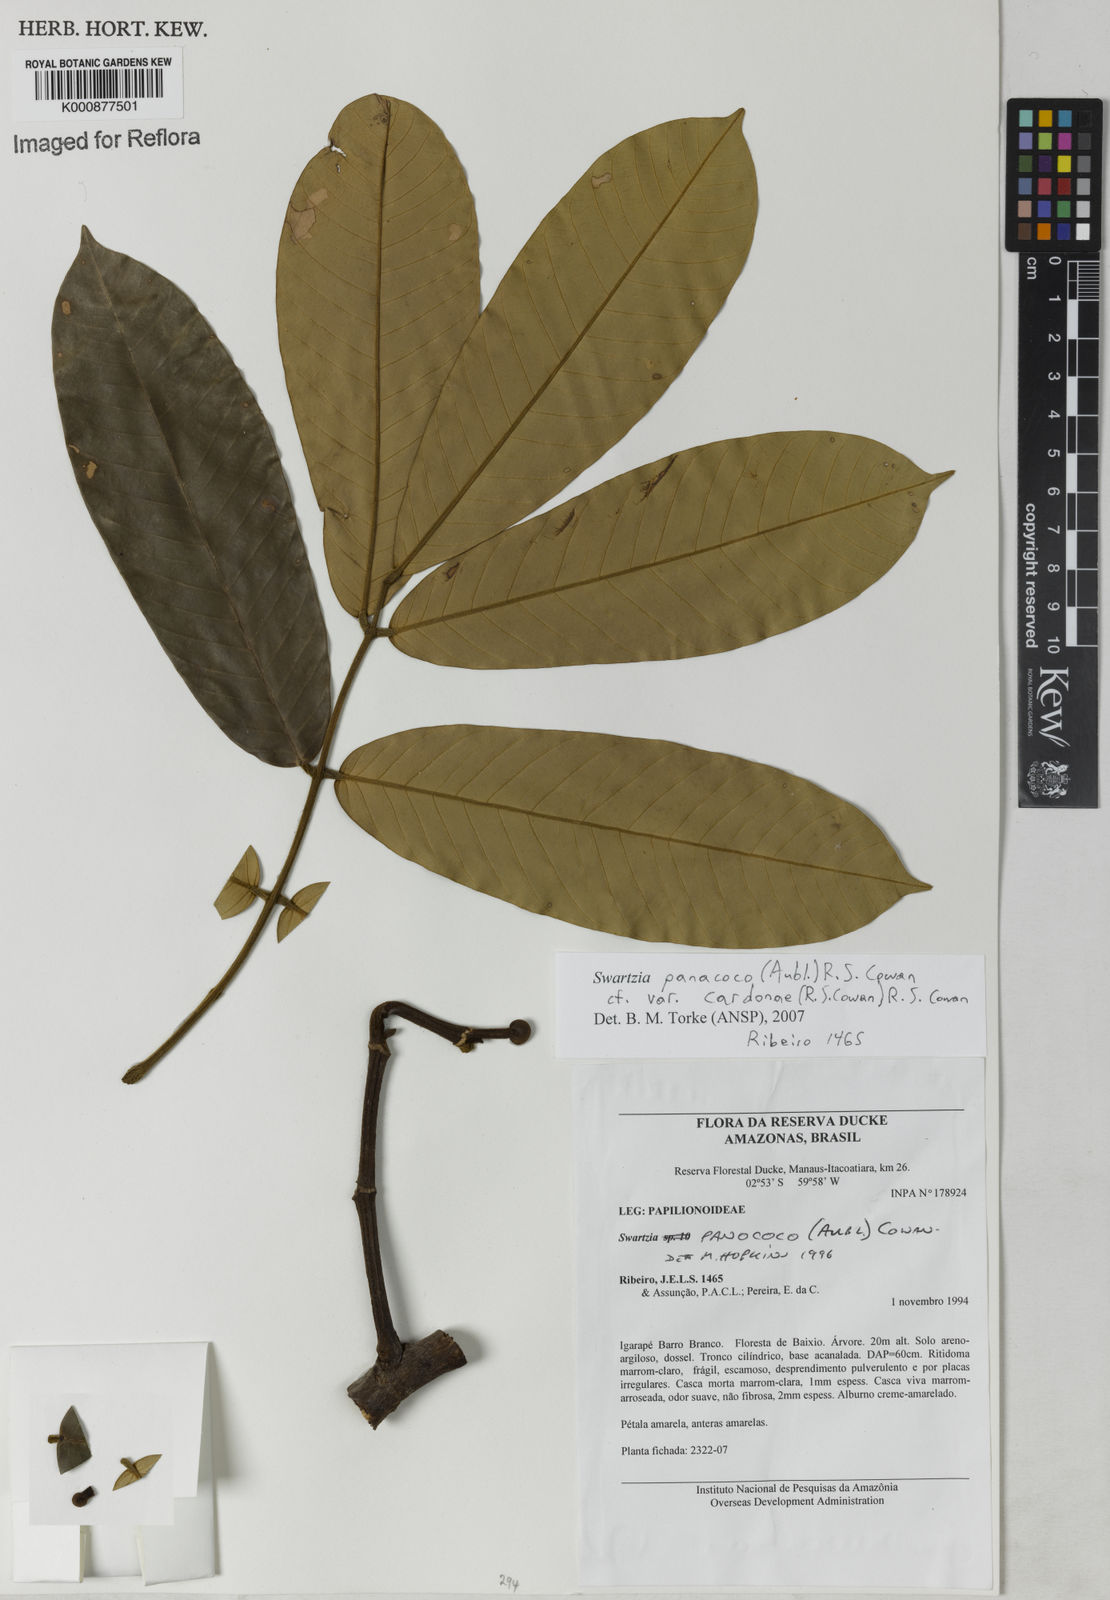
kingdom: Plantae
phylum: Tracheophyta
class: Magnoliopsida
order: Fabales
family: Fabaceae
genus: Swartzia
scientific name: Swartzia panacoco
